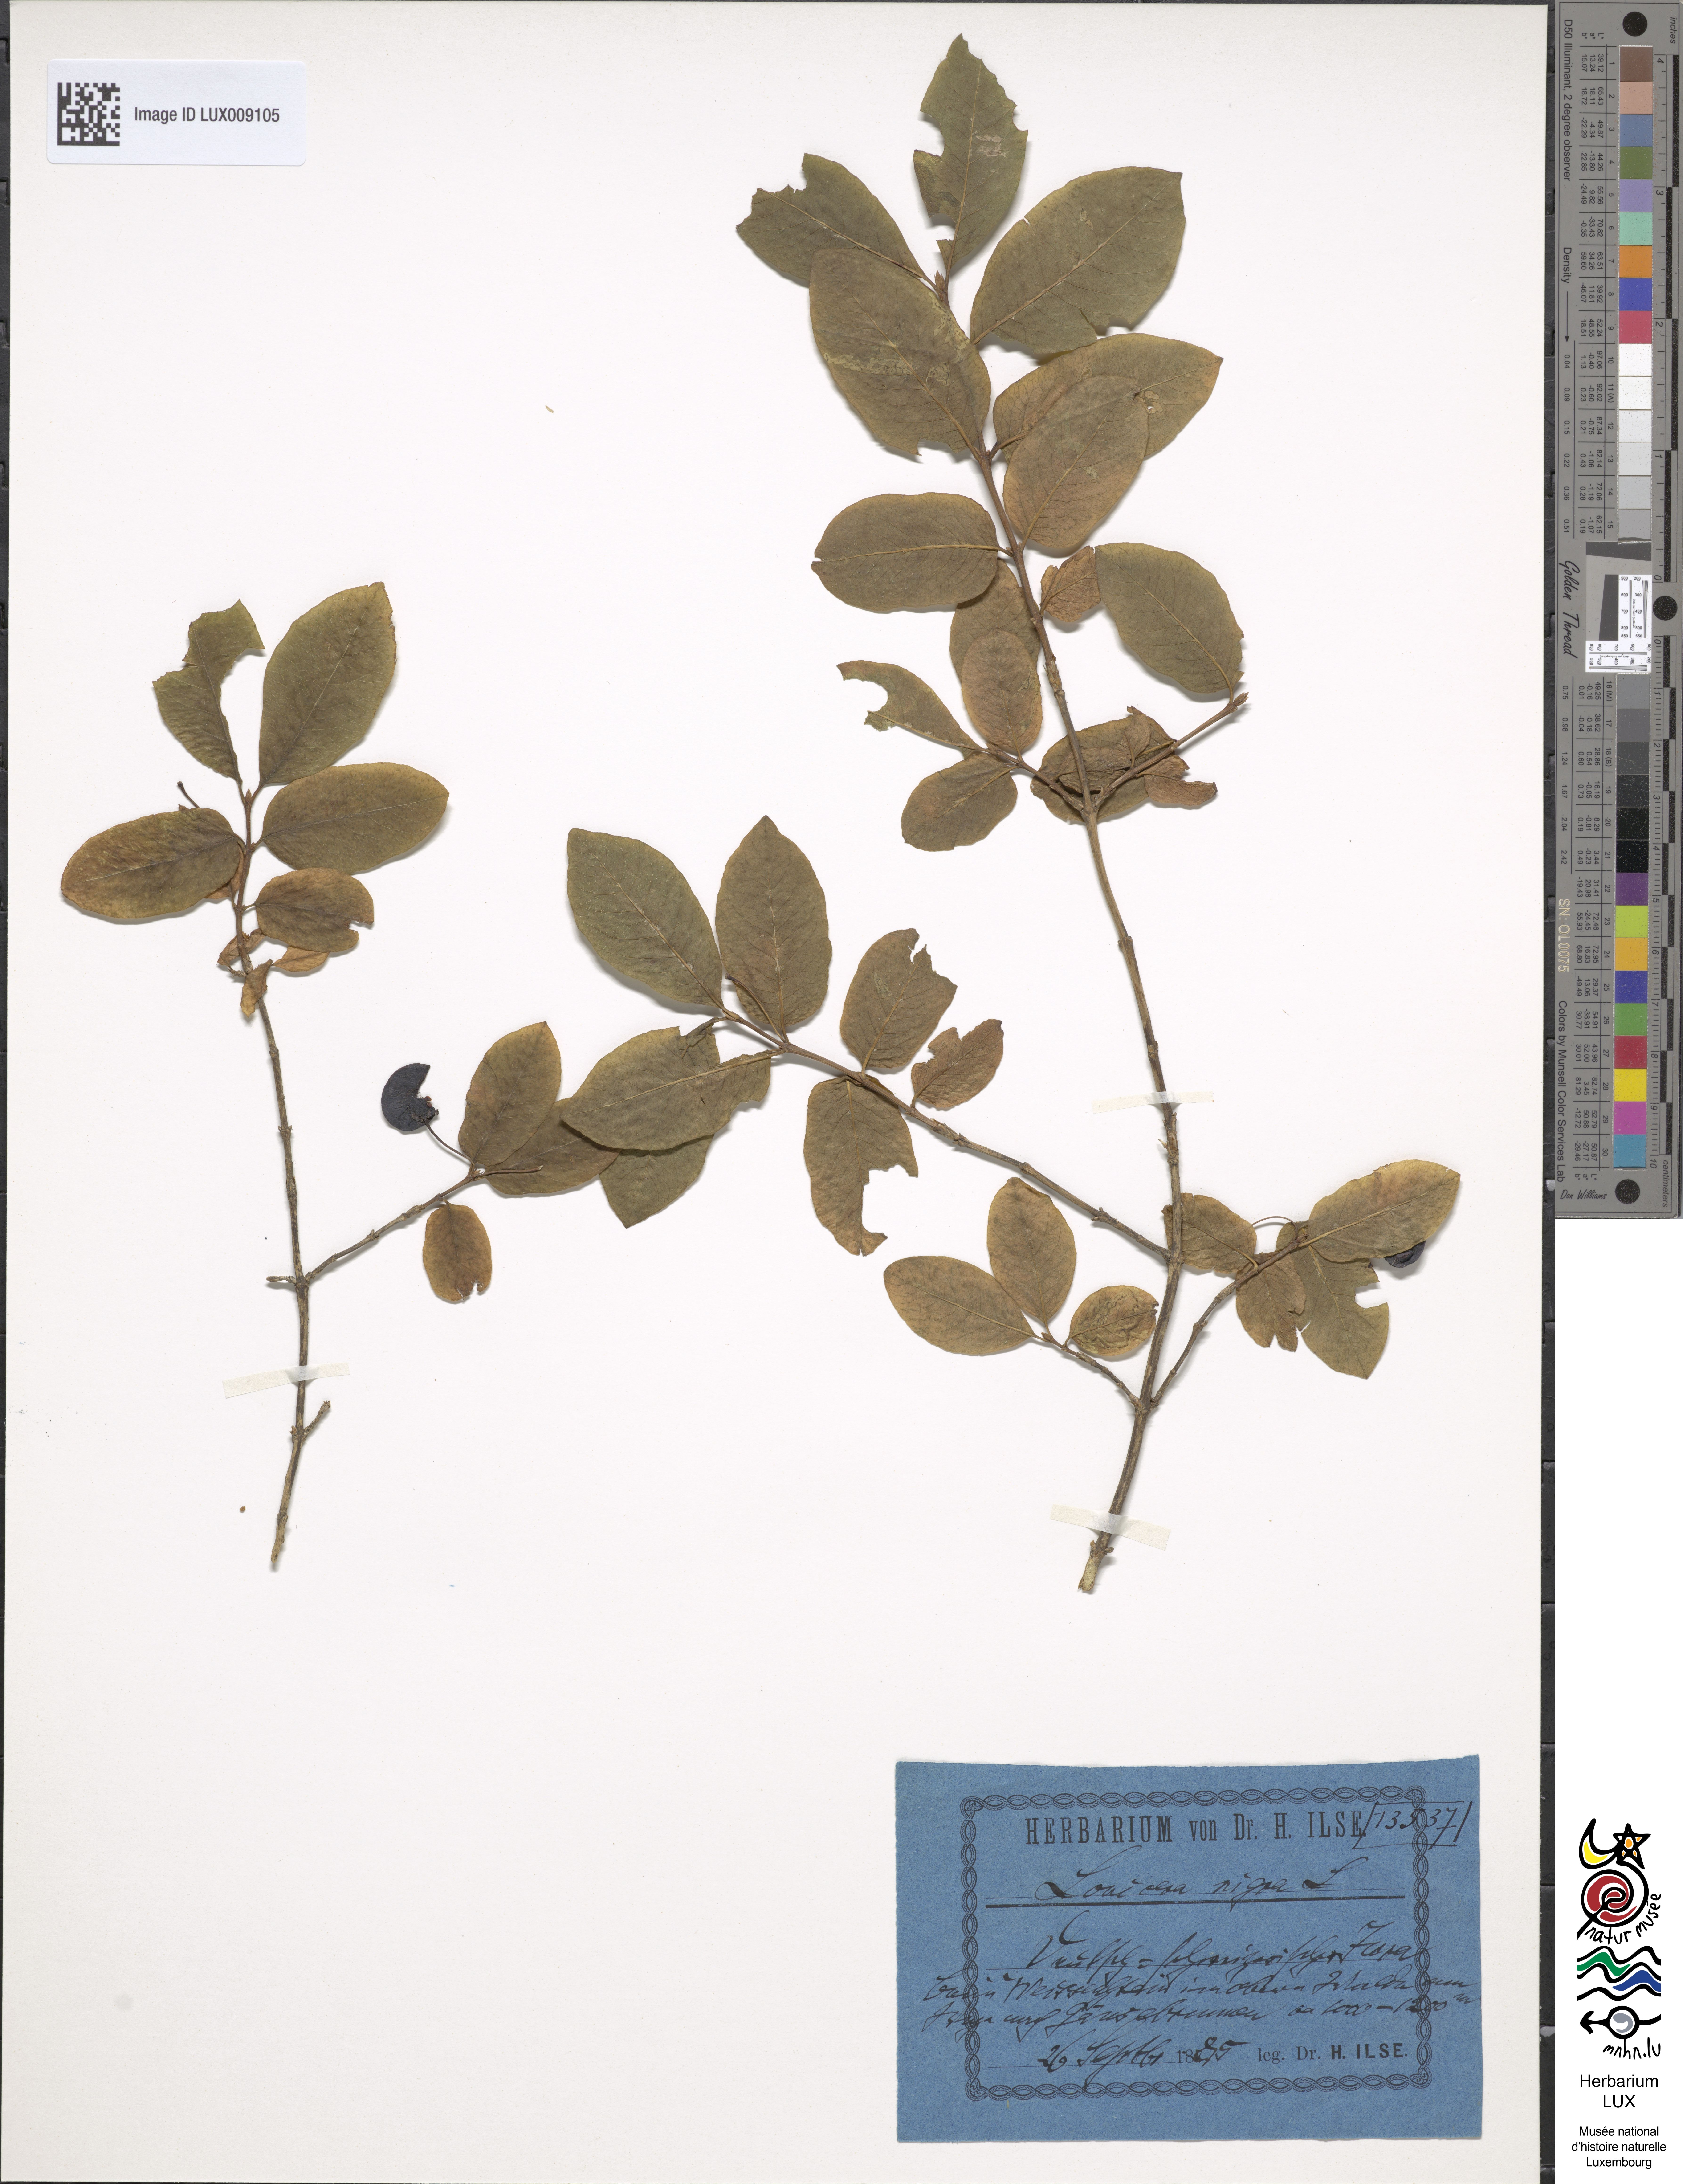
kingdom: Plantae
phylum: Tracheophyta
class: Magnoliopsida
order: Dipsacales
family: Caprifoliaceae
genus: Lonicera
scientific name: Lonicera nigra
